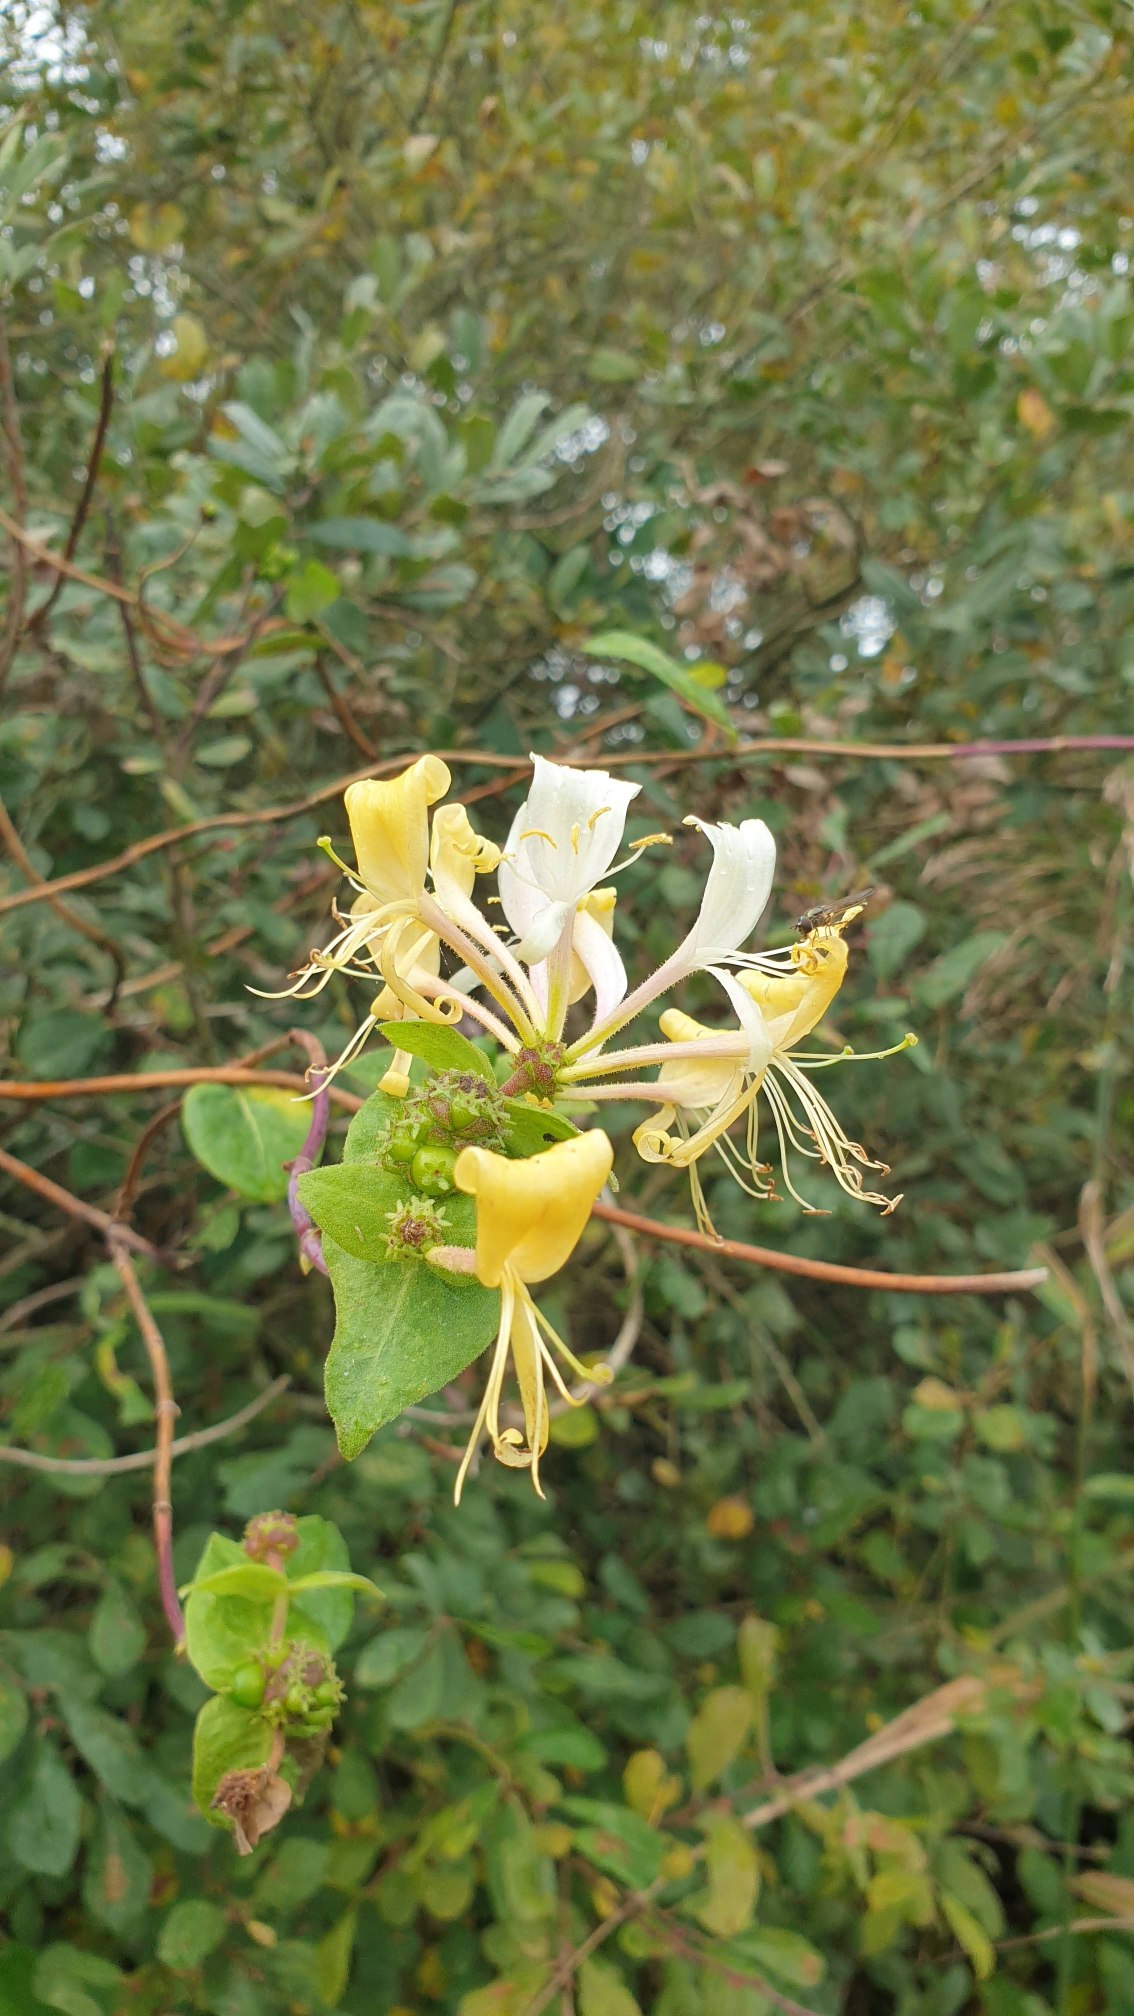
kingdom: Plantae
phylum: Tracheophyta
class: Magnoliopsida
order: Dipsacales
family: Caprifoliaceae
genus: Lonicera
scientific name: Lonicera periclymenum
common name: Almindelig gedeblad
